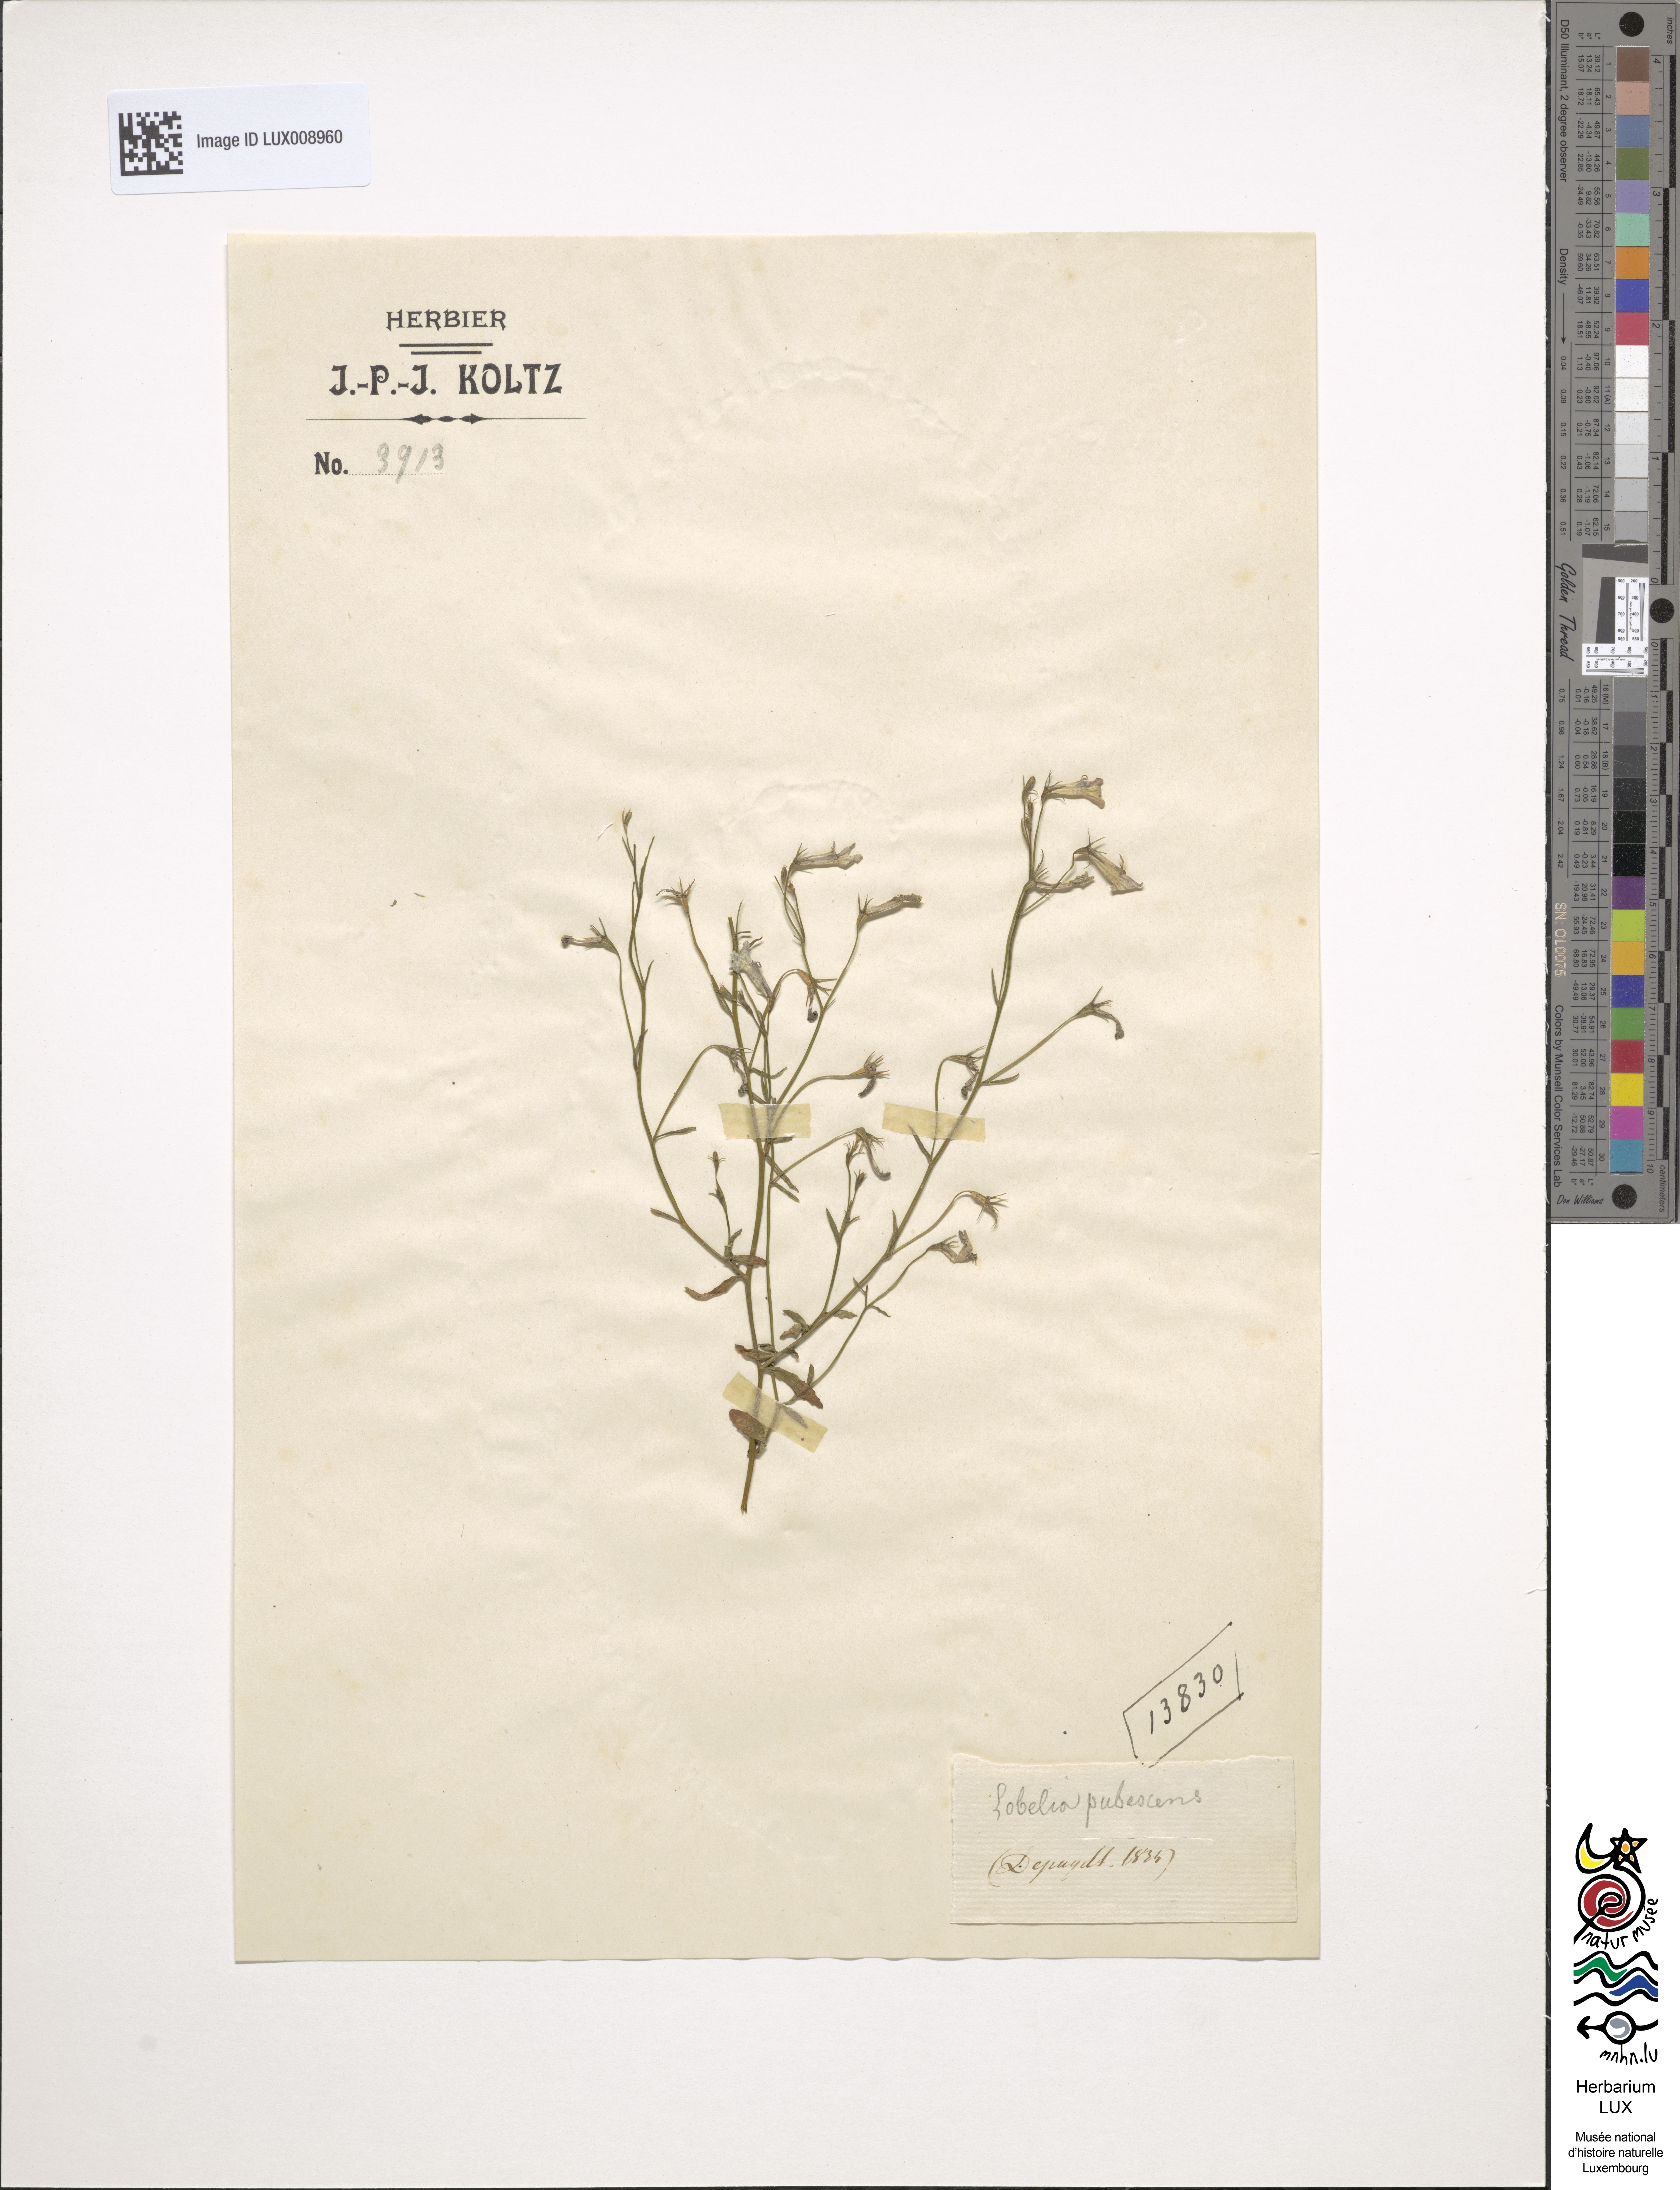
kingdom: Plantae
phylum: Tracheophyta
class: Magnoliopsida
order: Asterales
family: Campanulaceae
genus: Lobelia
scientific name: Lobelia pubescens
